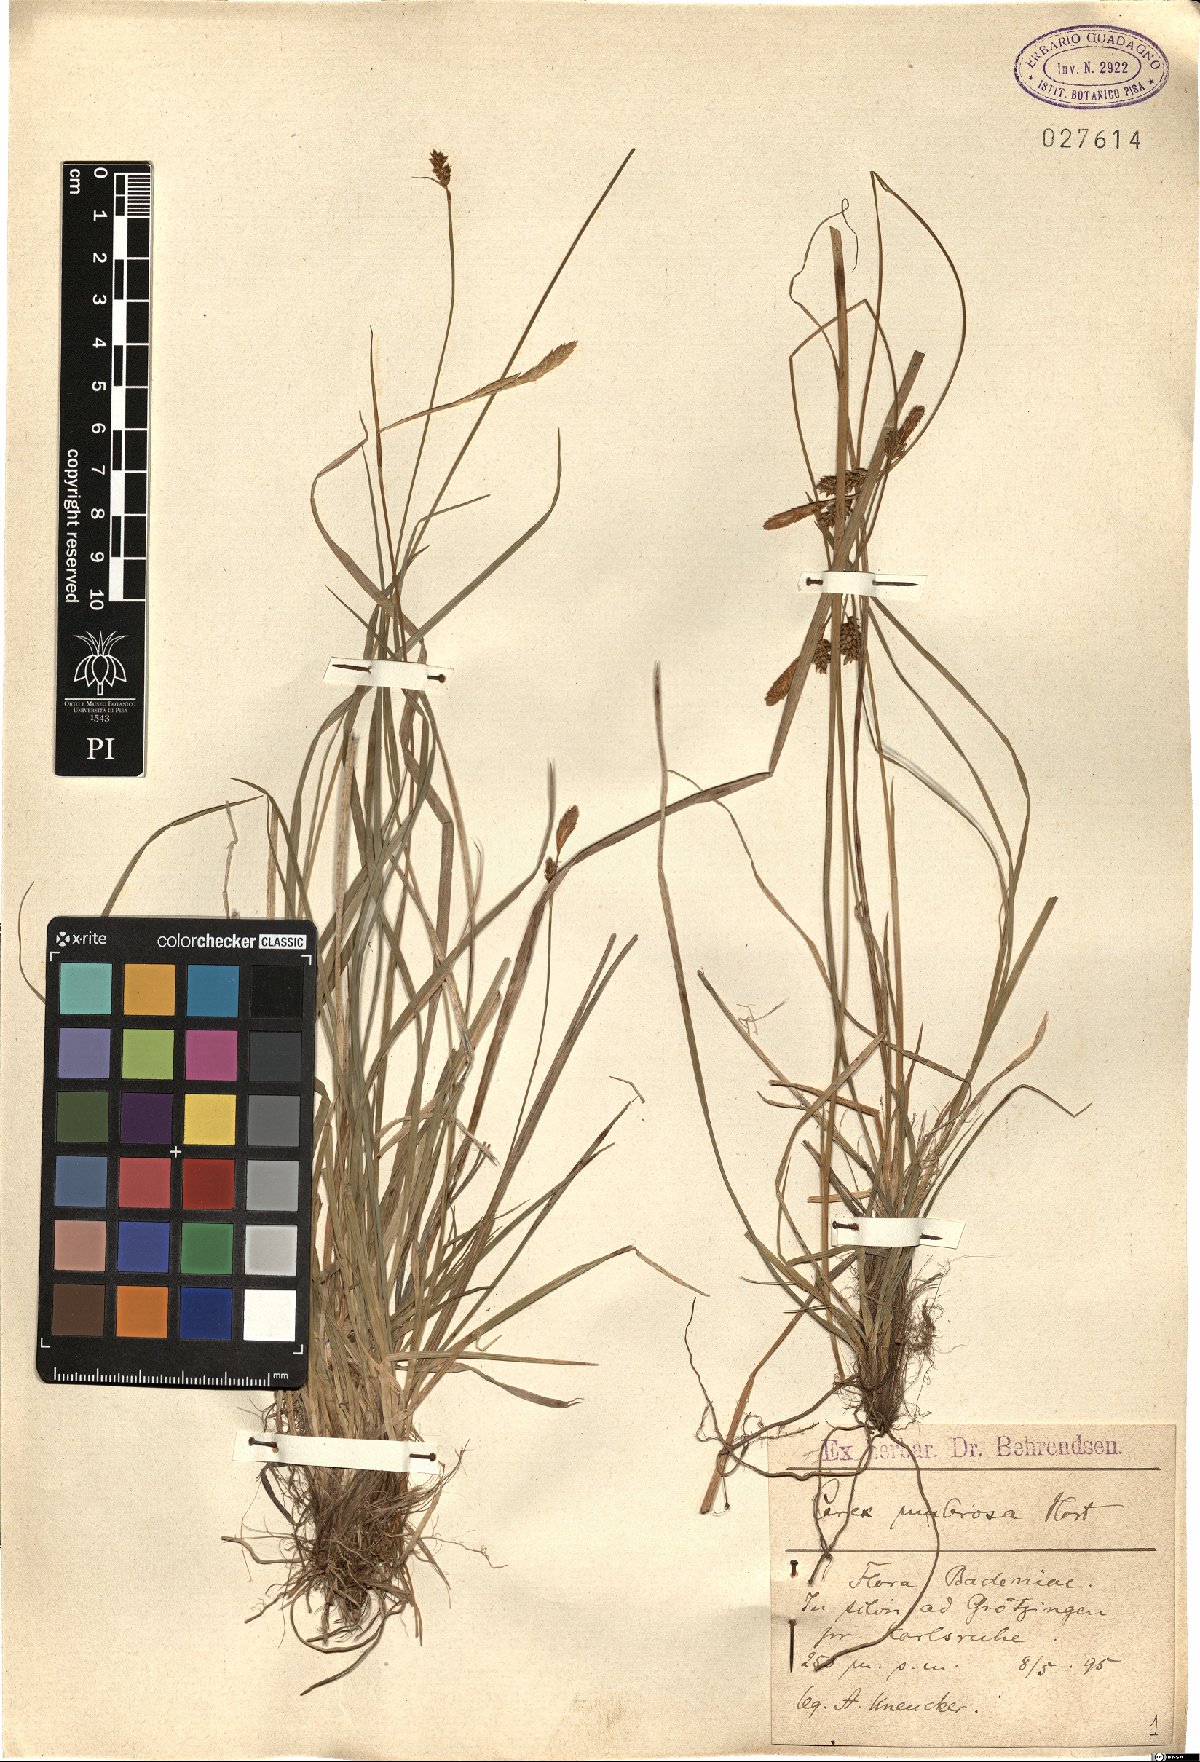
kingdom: Plantae
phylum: Tracheophyta
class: Liliopsida
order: Poales
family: Cyperaceae
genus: Carex
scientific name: Carex strigosa
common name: Thin-spiked wood-sedge
